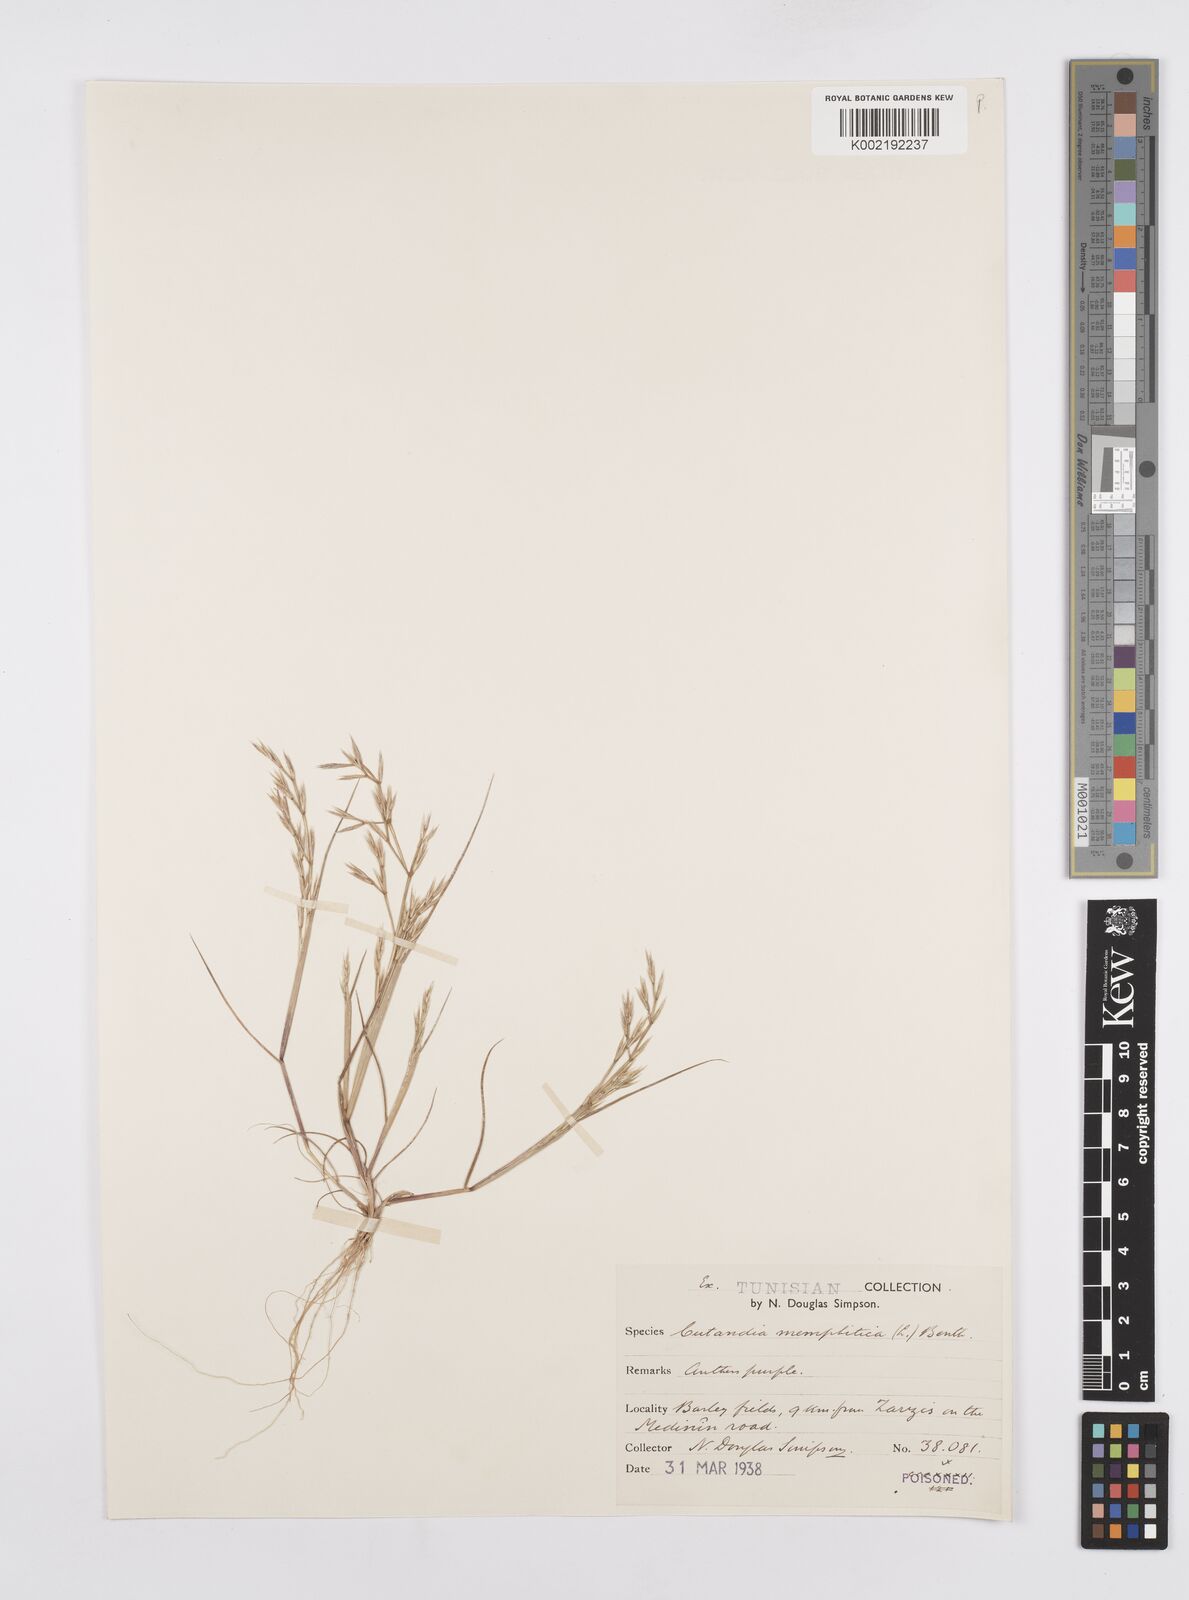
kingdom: Plantae
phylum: Tracheophyta
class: Liliopsida
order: Poales
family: Poaceae
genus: Cutandia
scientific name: Cutandia memphitica
